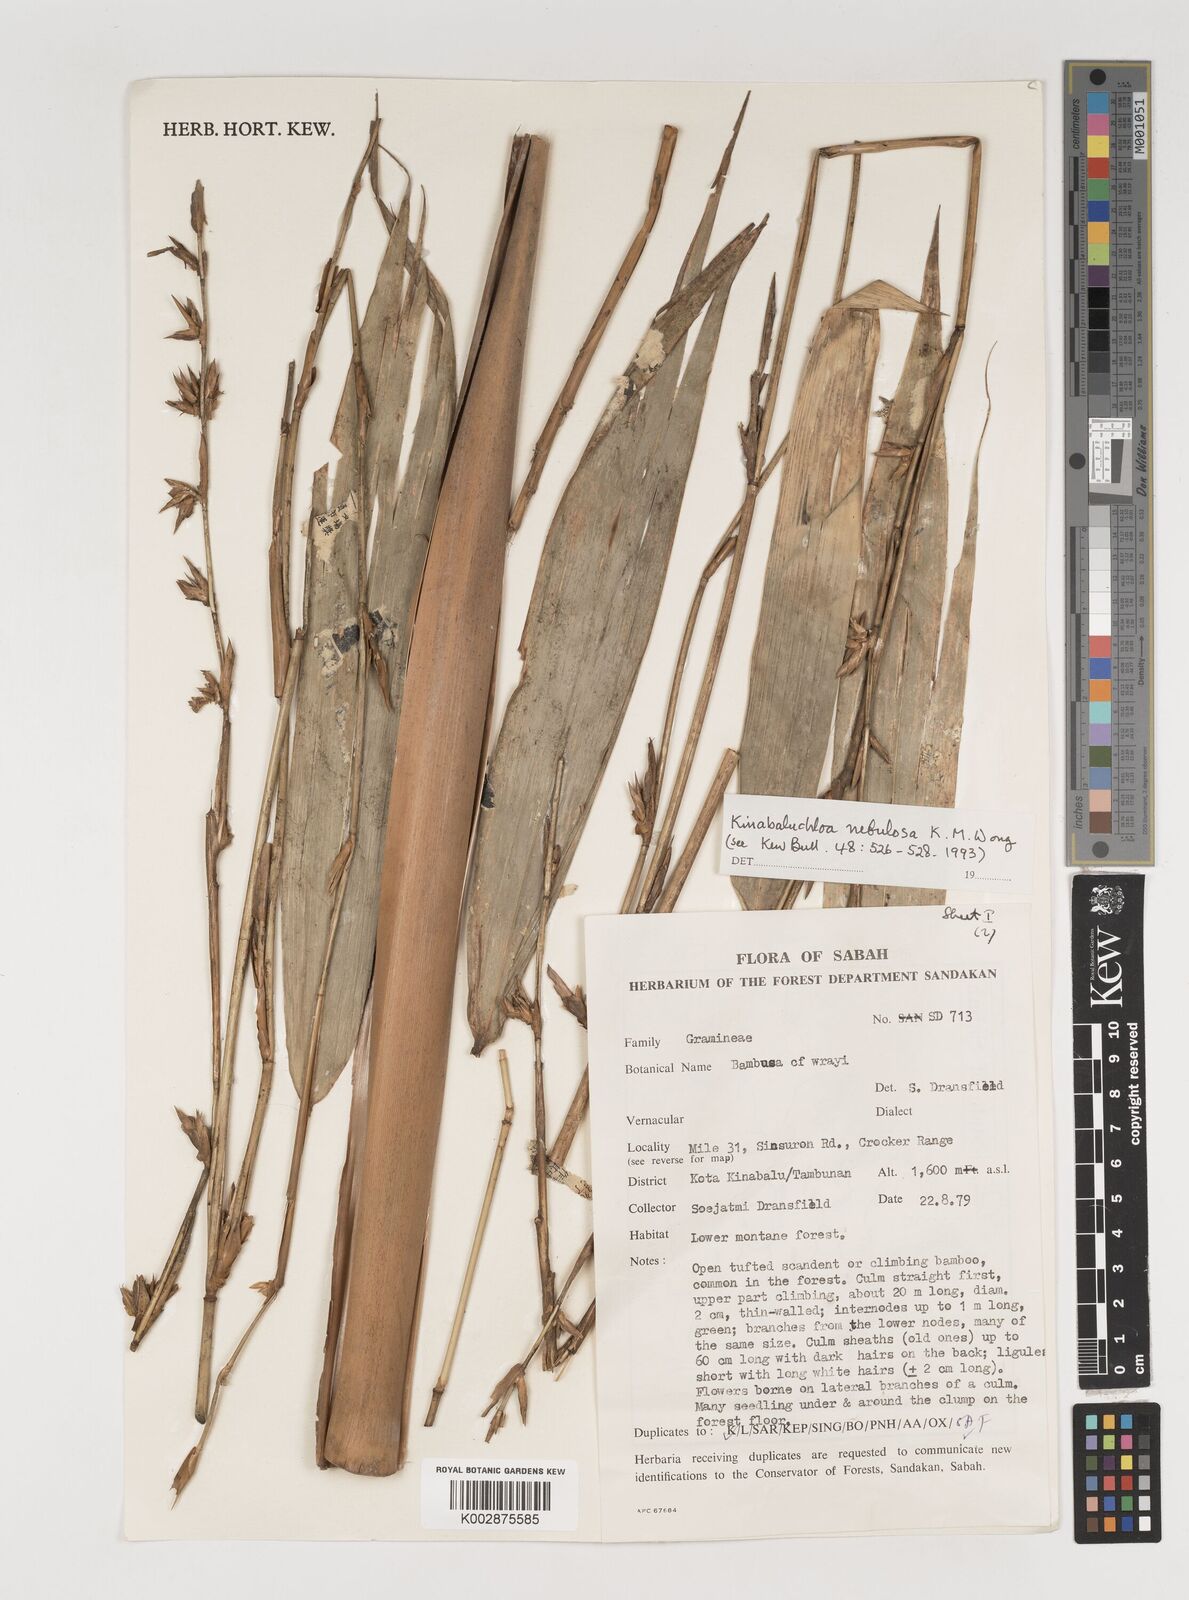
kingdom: Plantae
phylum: Tracheophyta
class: Liliopsida
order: Poales
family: Poaceae
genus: Kinabaluchloa
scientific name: Kinabaluchloa nebulosa
